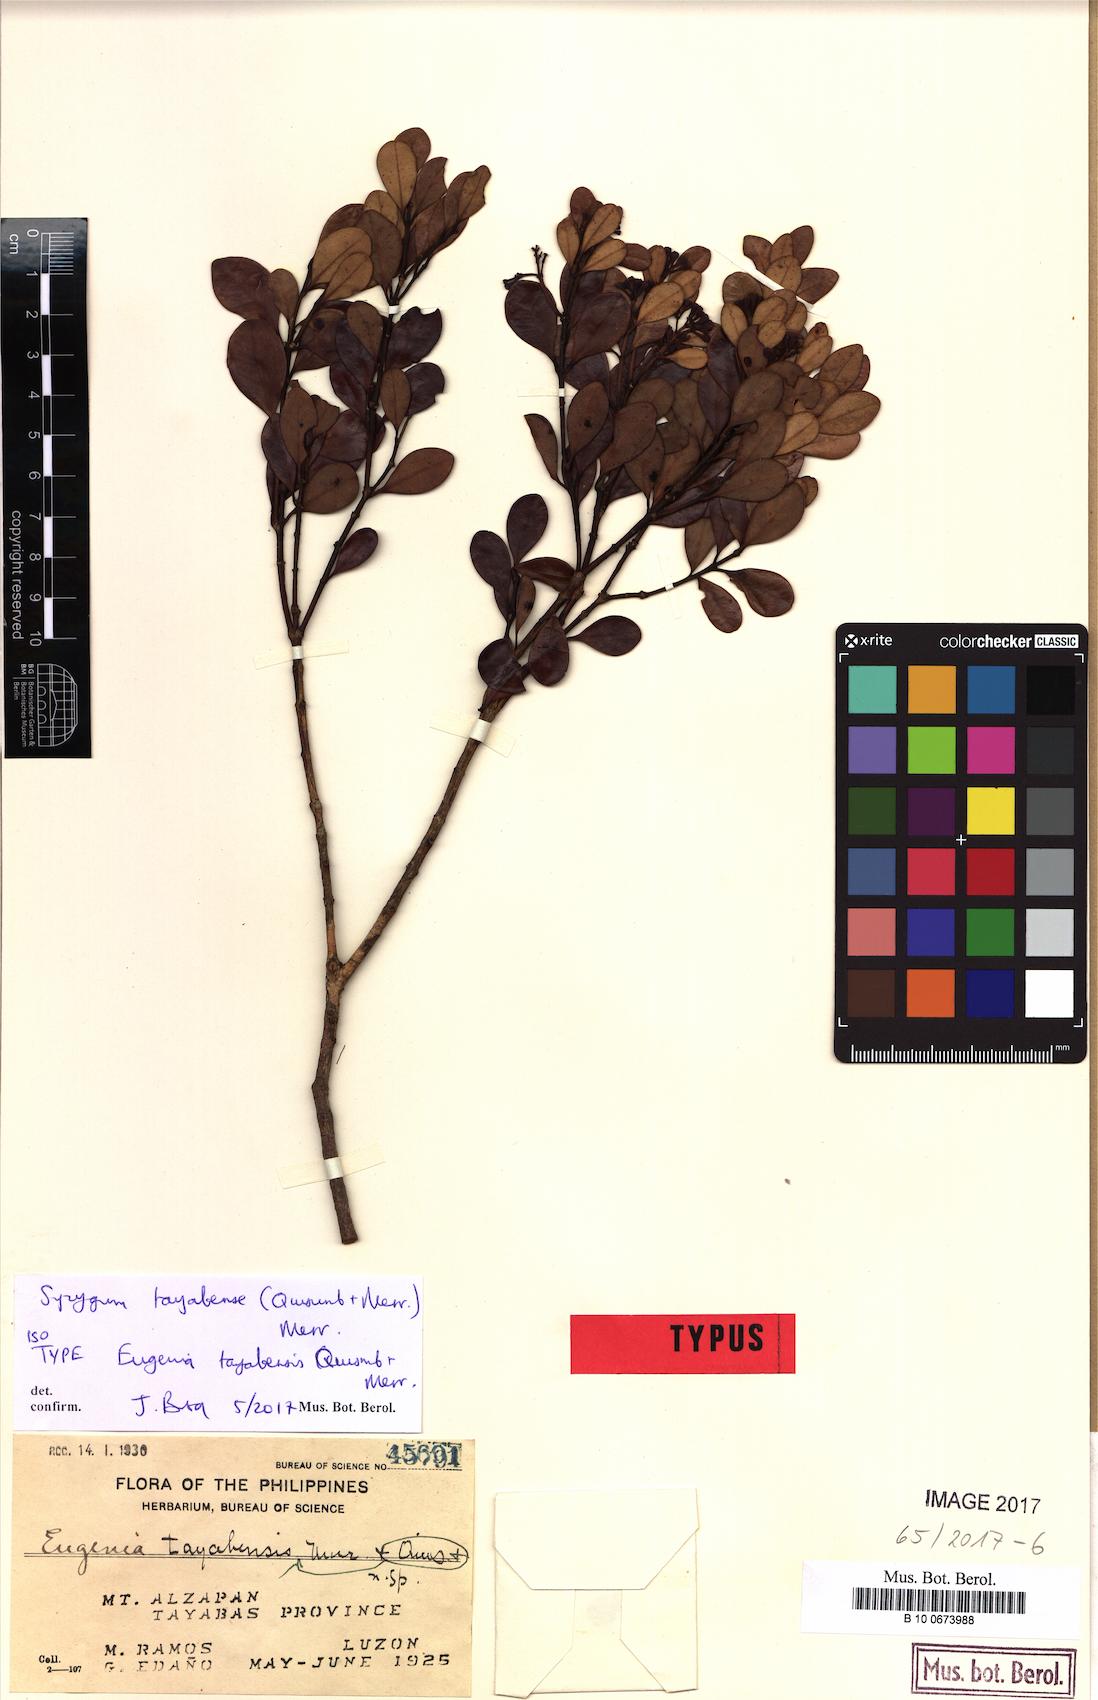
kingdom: Plantae
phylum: Tracheophyta
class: Magnoliopsida
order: Myrtales
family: Myrtaceae
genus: Syzygium
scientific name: Syzygium tayabense
